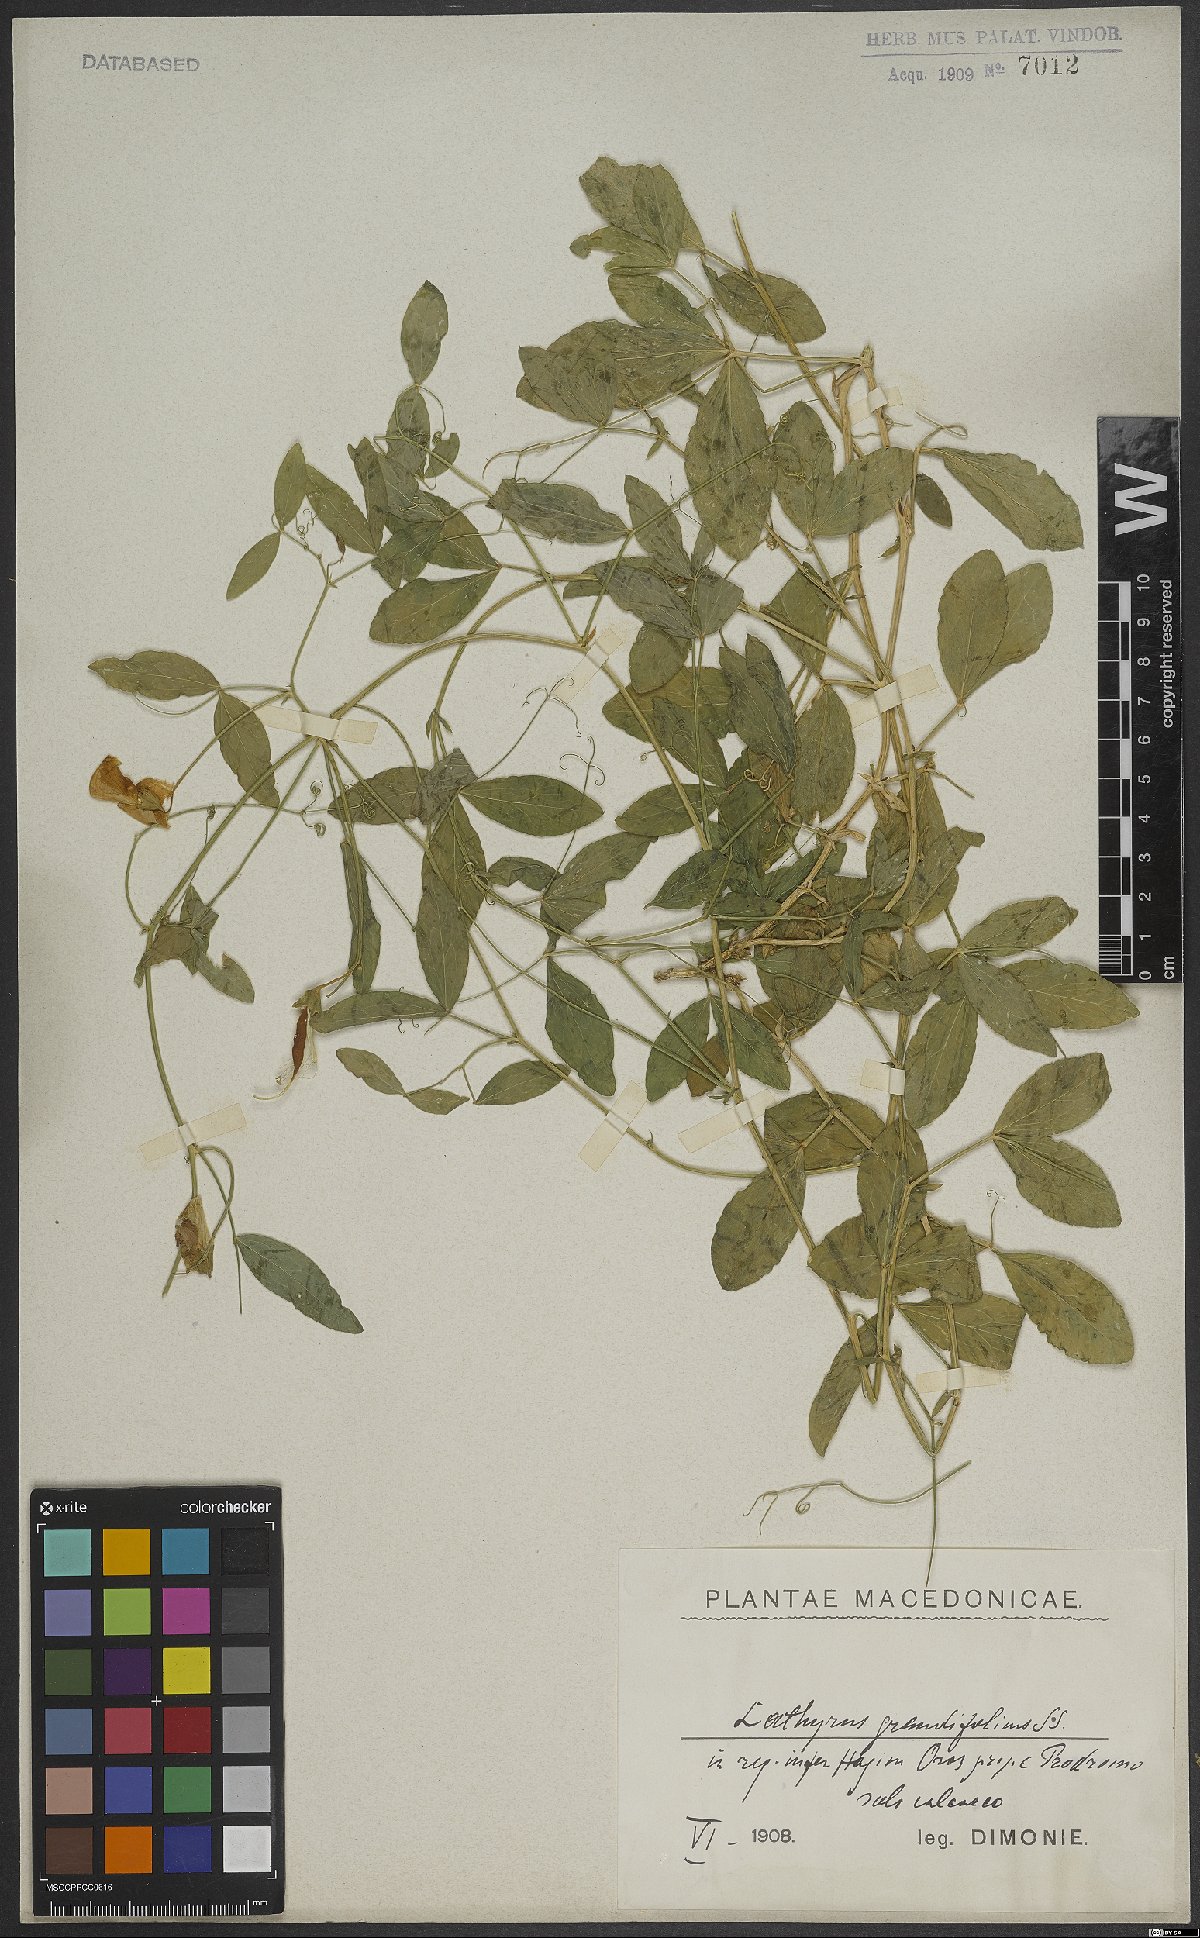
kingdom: Plantae
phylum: Tracheophyta
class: Magnoliopsida
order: Fabales
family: Fabaceae
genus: Lathyrus
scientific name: Lathyrus grandiflorus
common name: Two-flowered everlasting-pea
